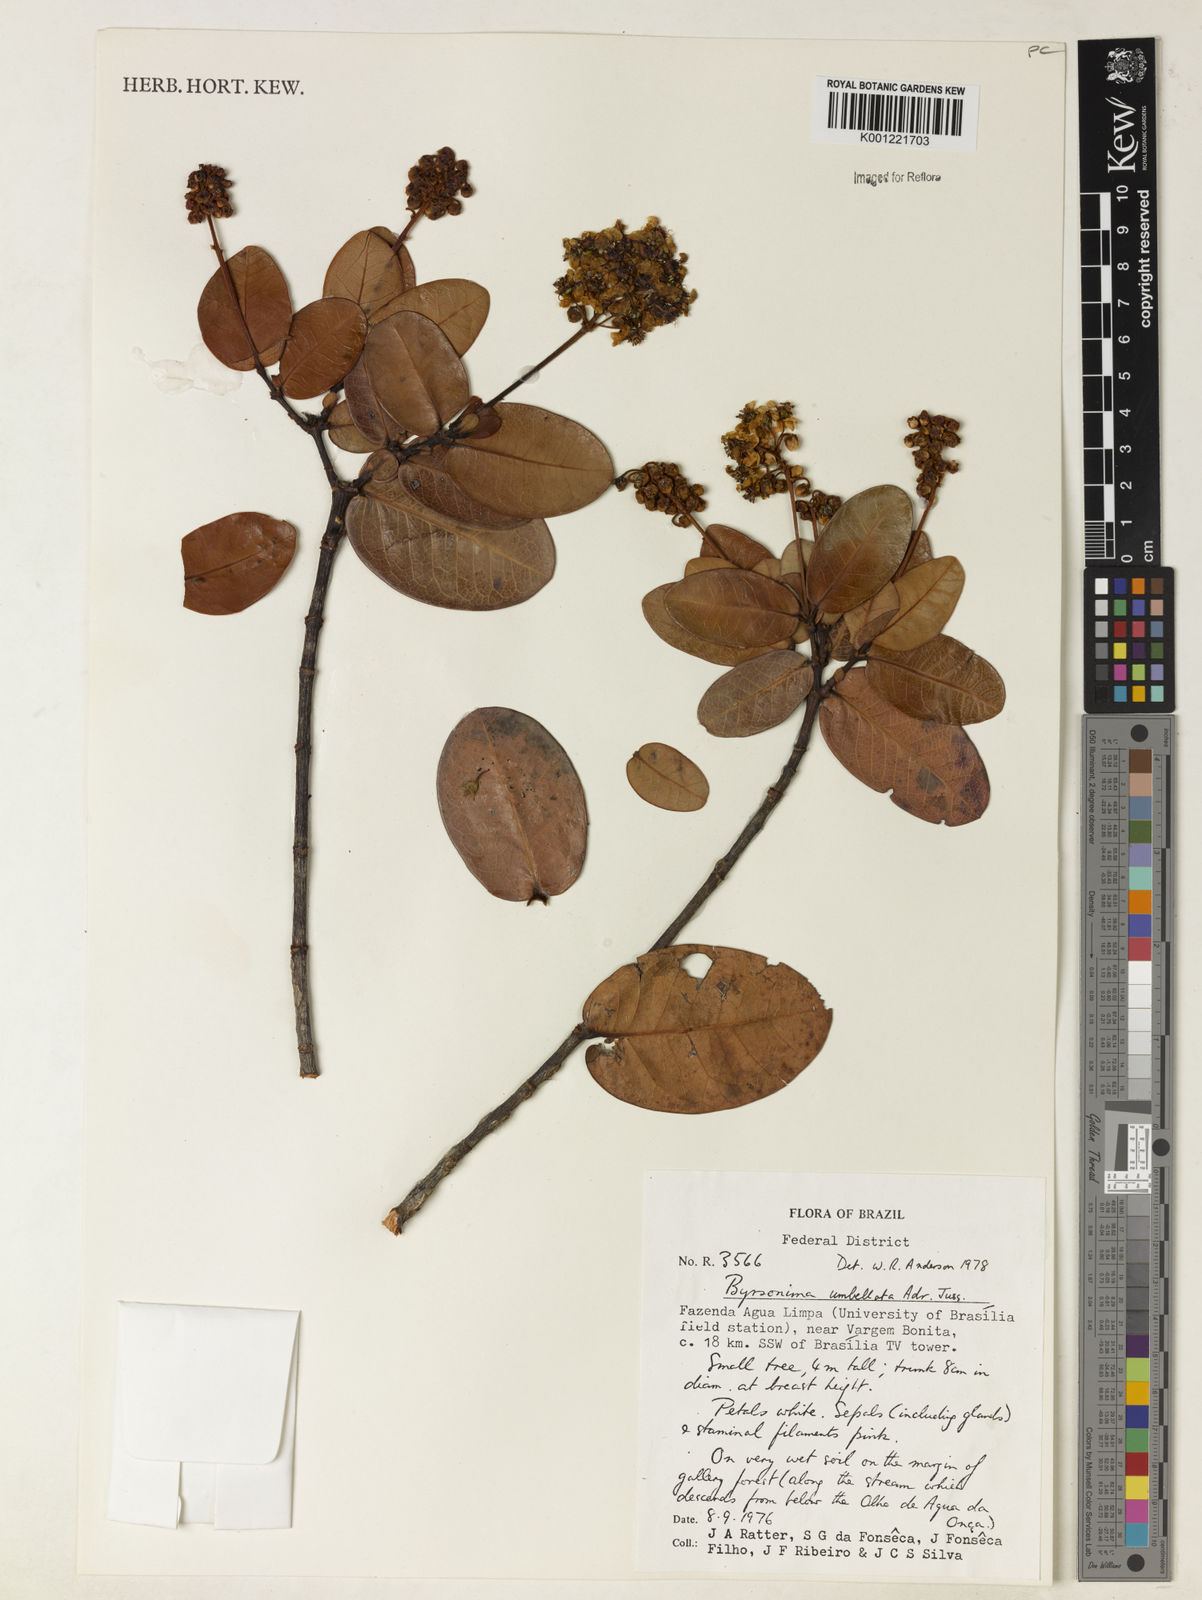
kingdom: Plantae
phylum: Tracheophyta
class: Magnoliopsida
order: Malpighiales
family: Malpighiaceae
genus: Byrsonima
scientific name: Byrsonima umbellata
